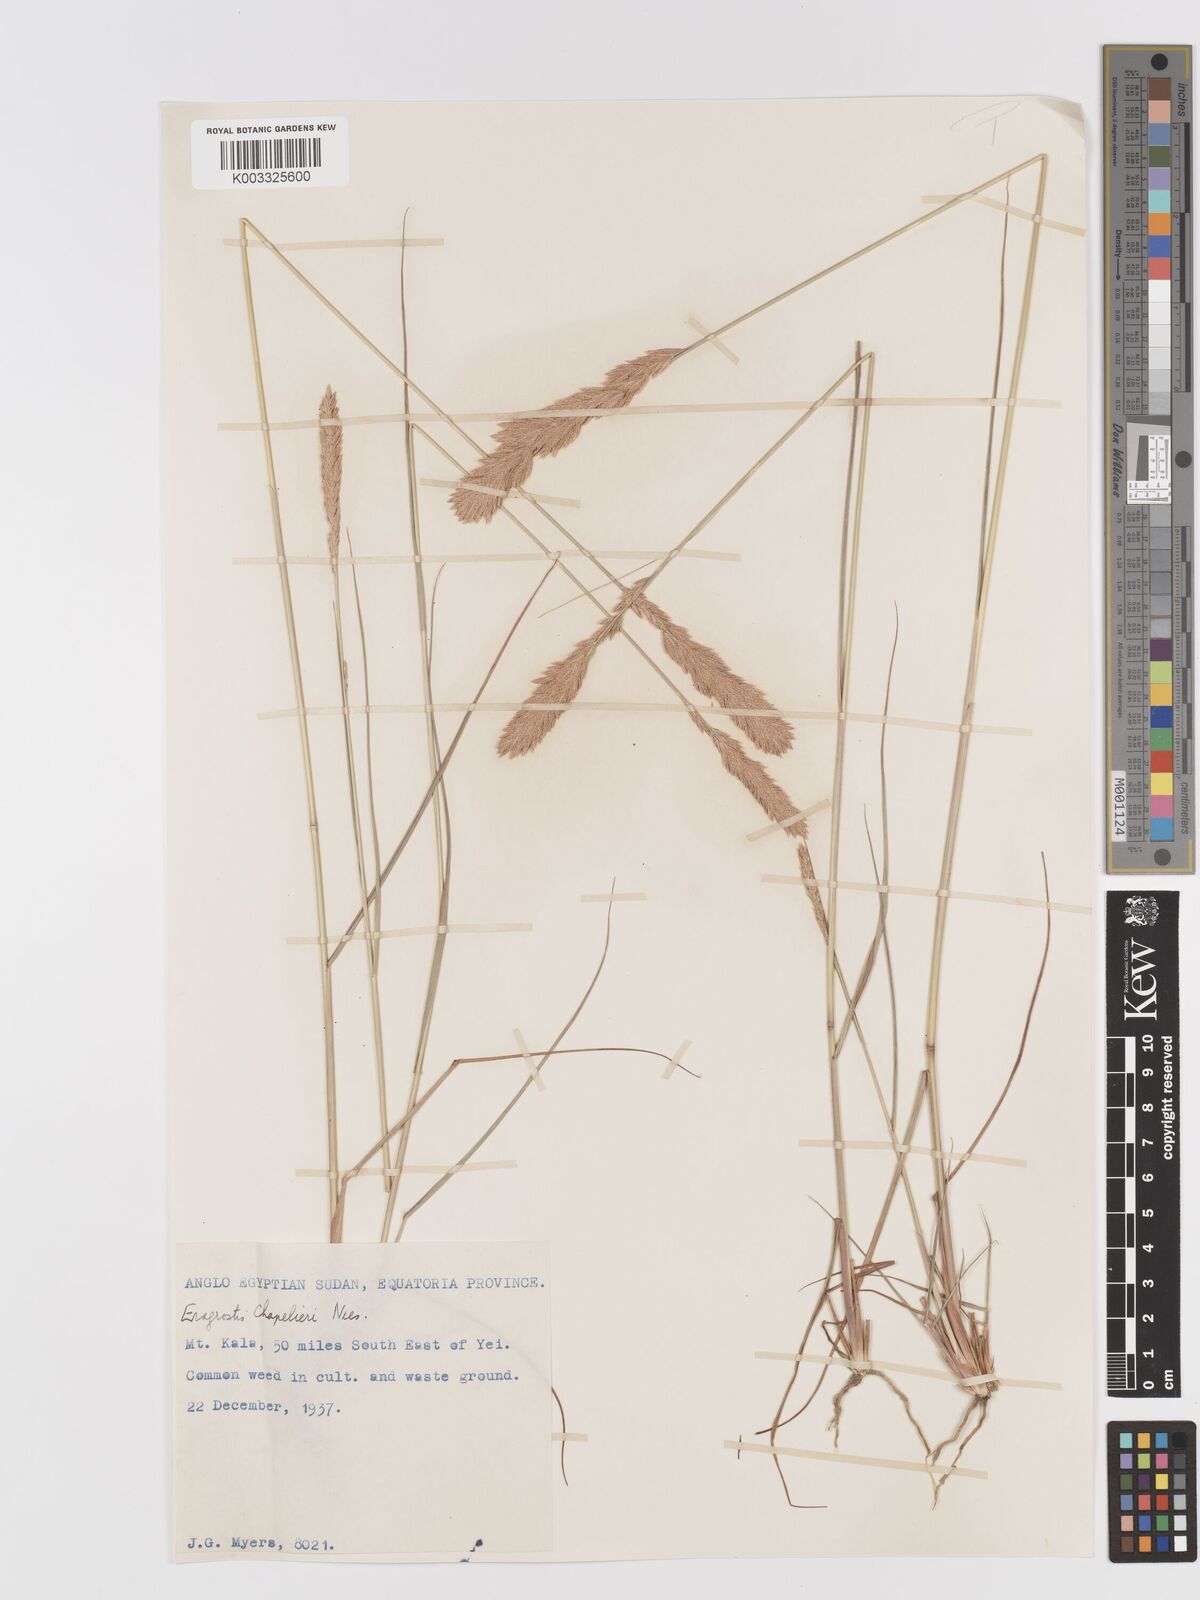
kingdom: Plantae
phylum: Tracheophyta
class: Liliopsida
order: Poales
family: Poaceae
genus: Eragrostis
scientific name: Eragrostis chapelieri
